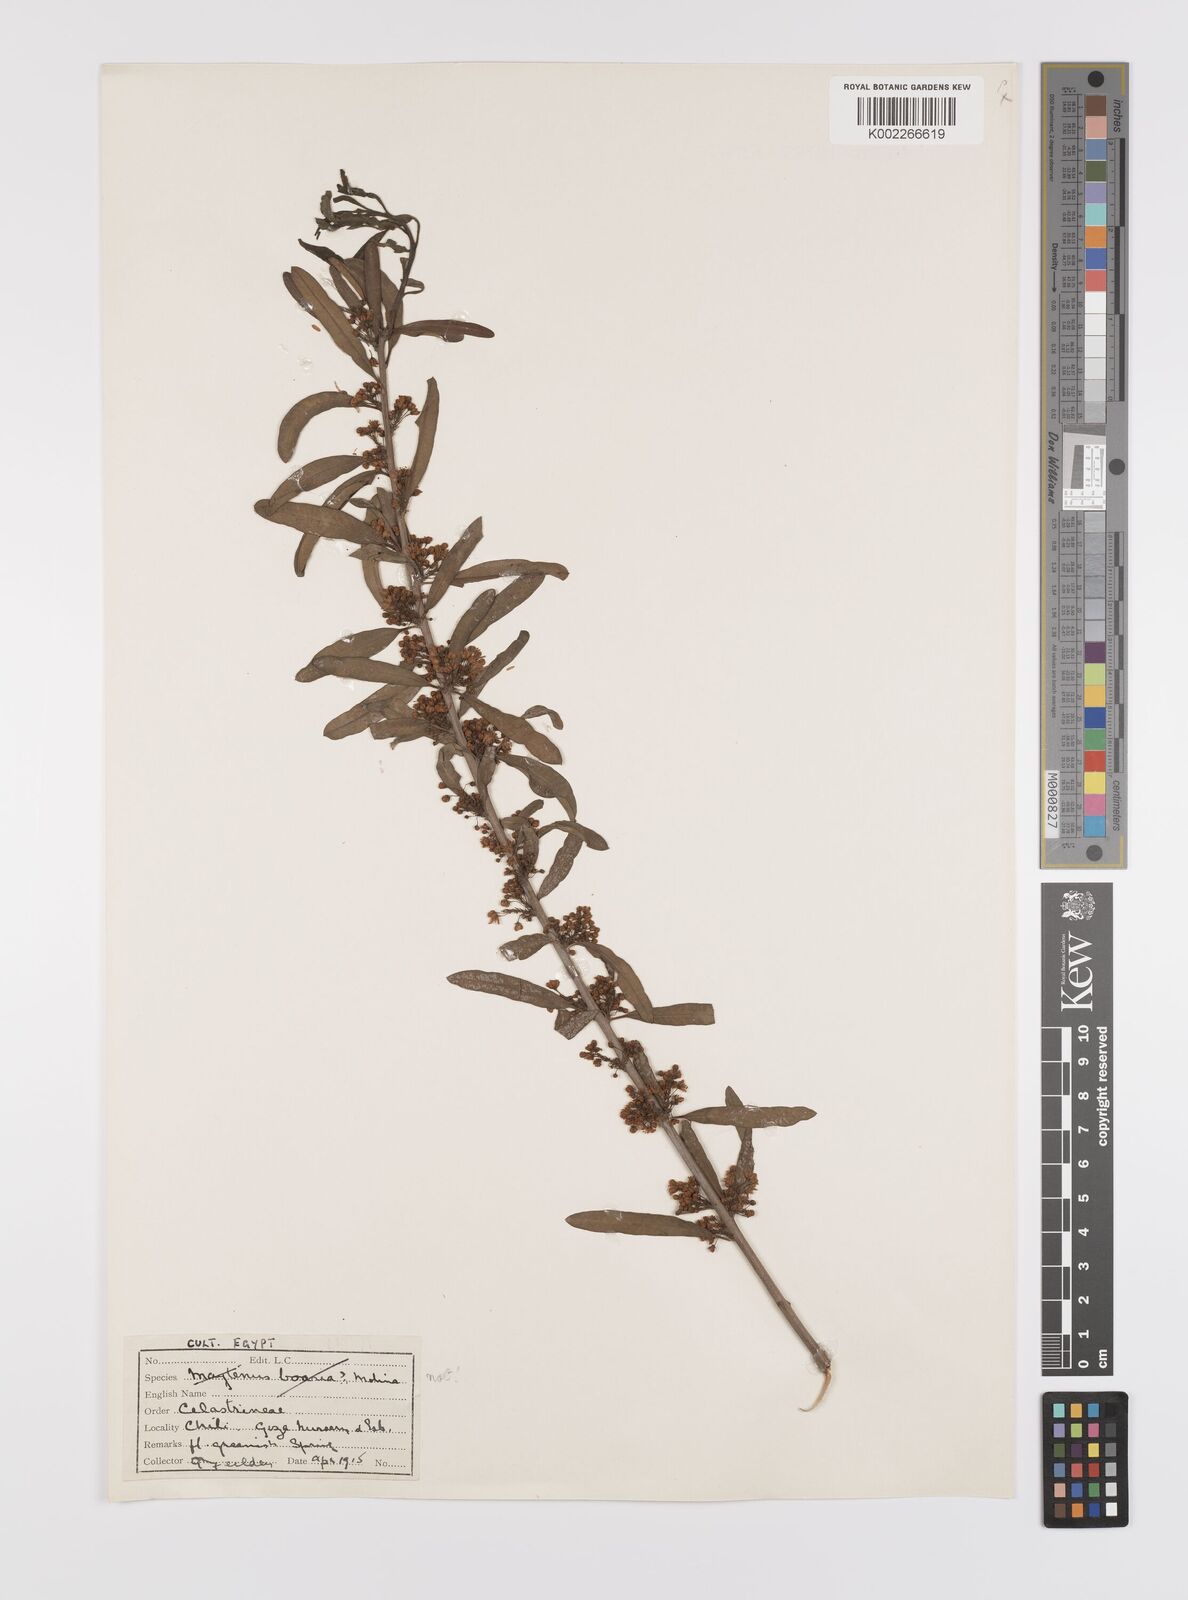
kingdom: Plantae
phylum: Tracheophyta
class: Magnoliopsida
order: Celastrales
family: Celastraceae
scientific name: Celastraceae
